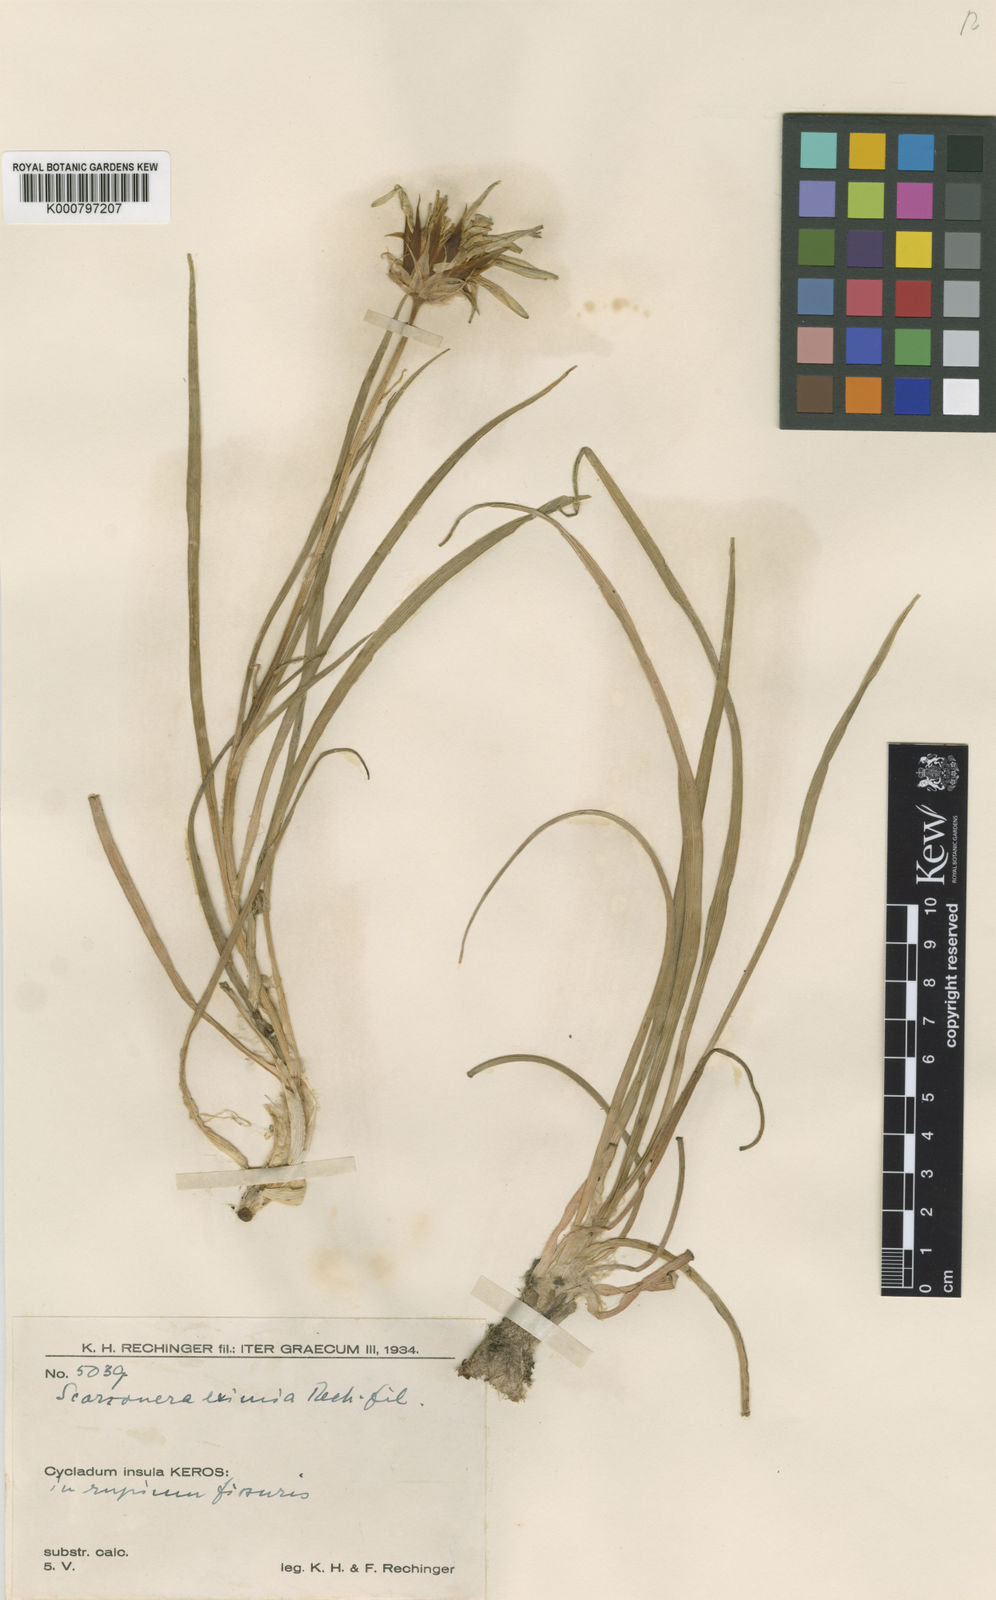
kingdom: Plantae
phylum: Tracheophyta
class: Magnoliopsida
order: Asterales
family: Asteraceae
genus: Gelasia
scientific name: Gelasia araneosa
